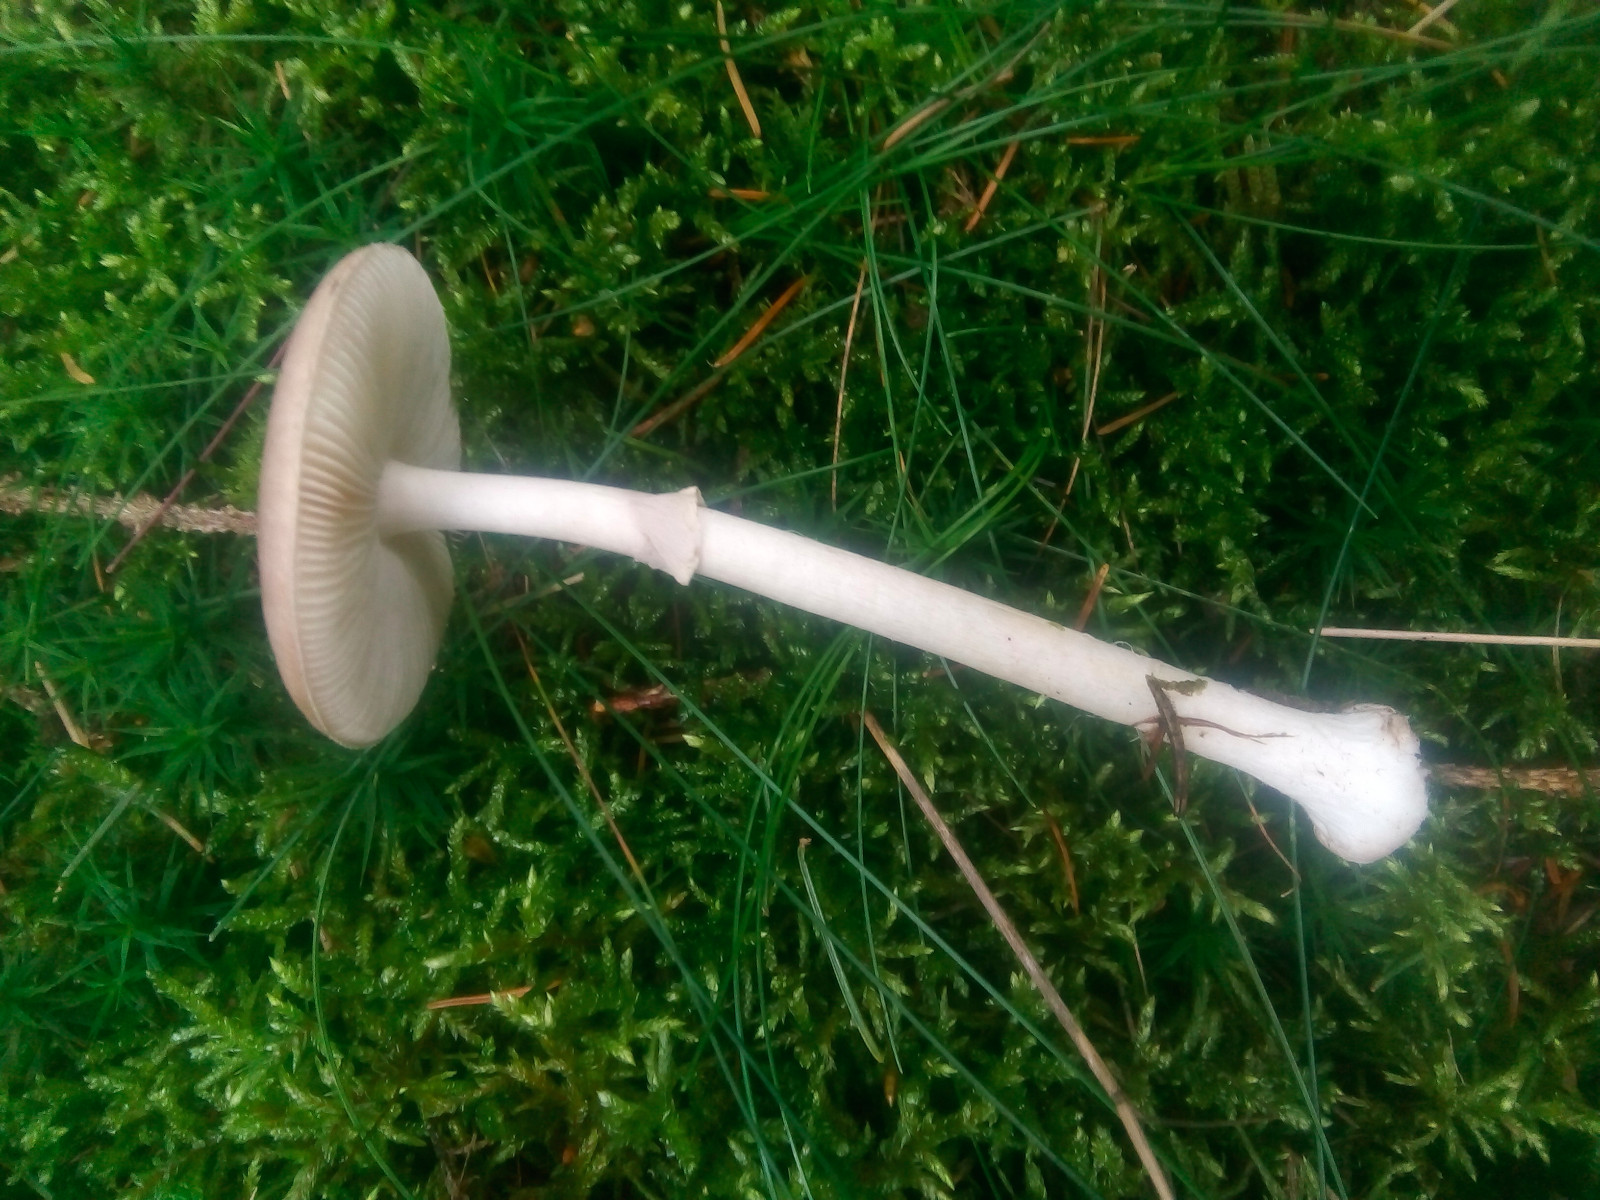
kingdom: Fungi
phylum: Basidiomycota
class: Agaricomycetes
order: Agaricales
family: Amanitaceae
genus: Amanita
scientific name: Amanita porphyria
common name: porfyr-fluesvamp
